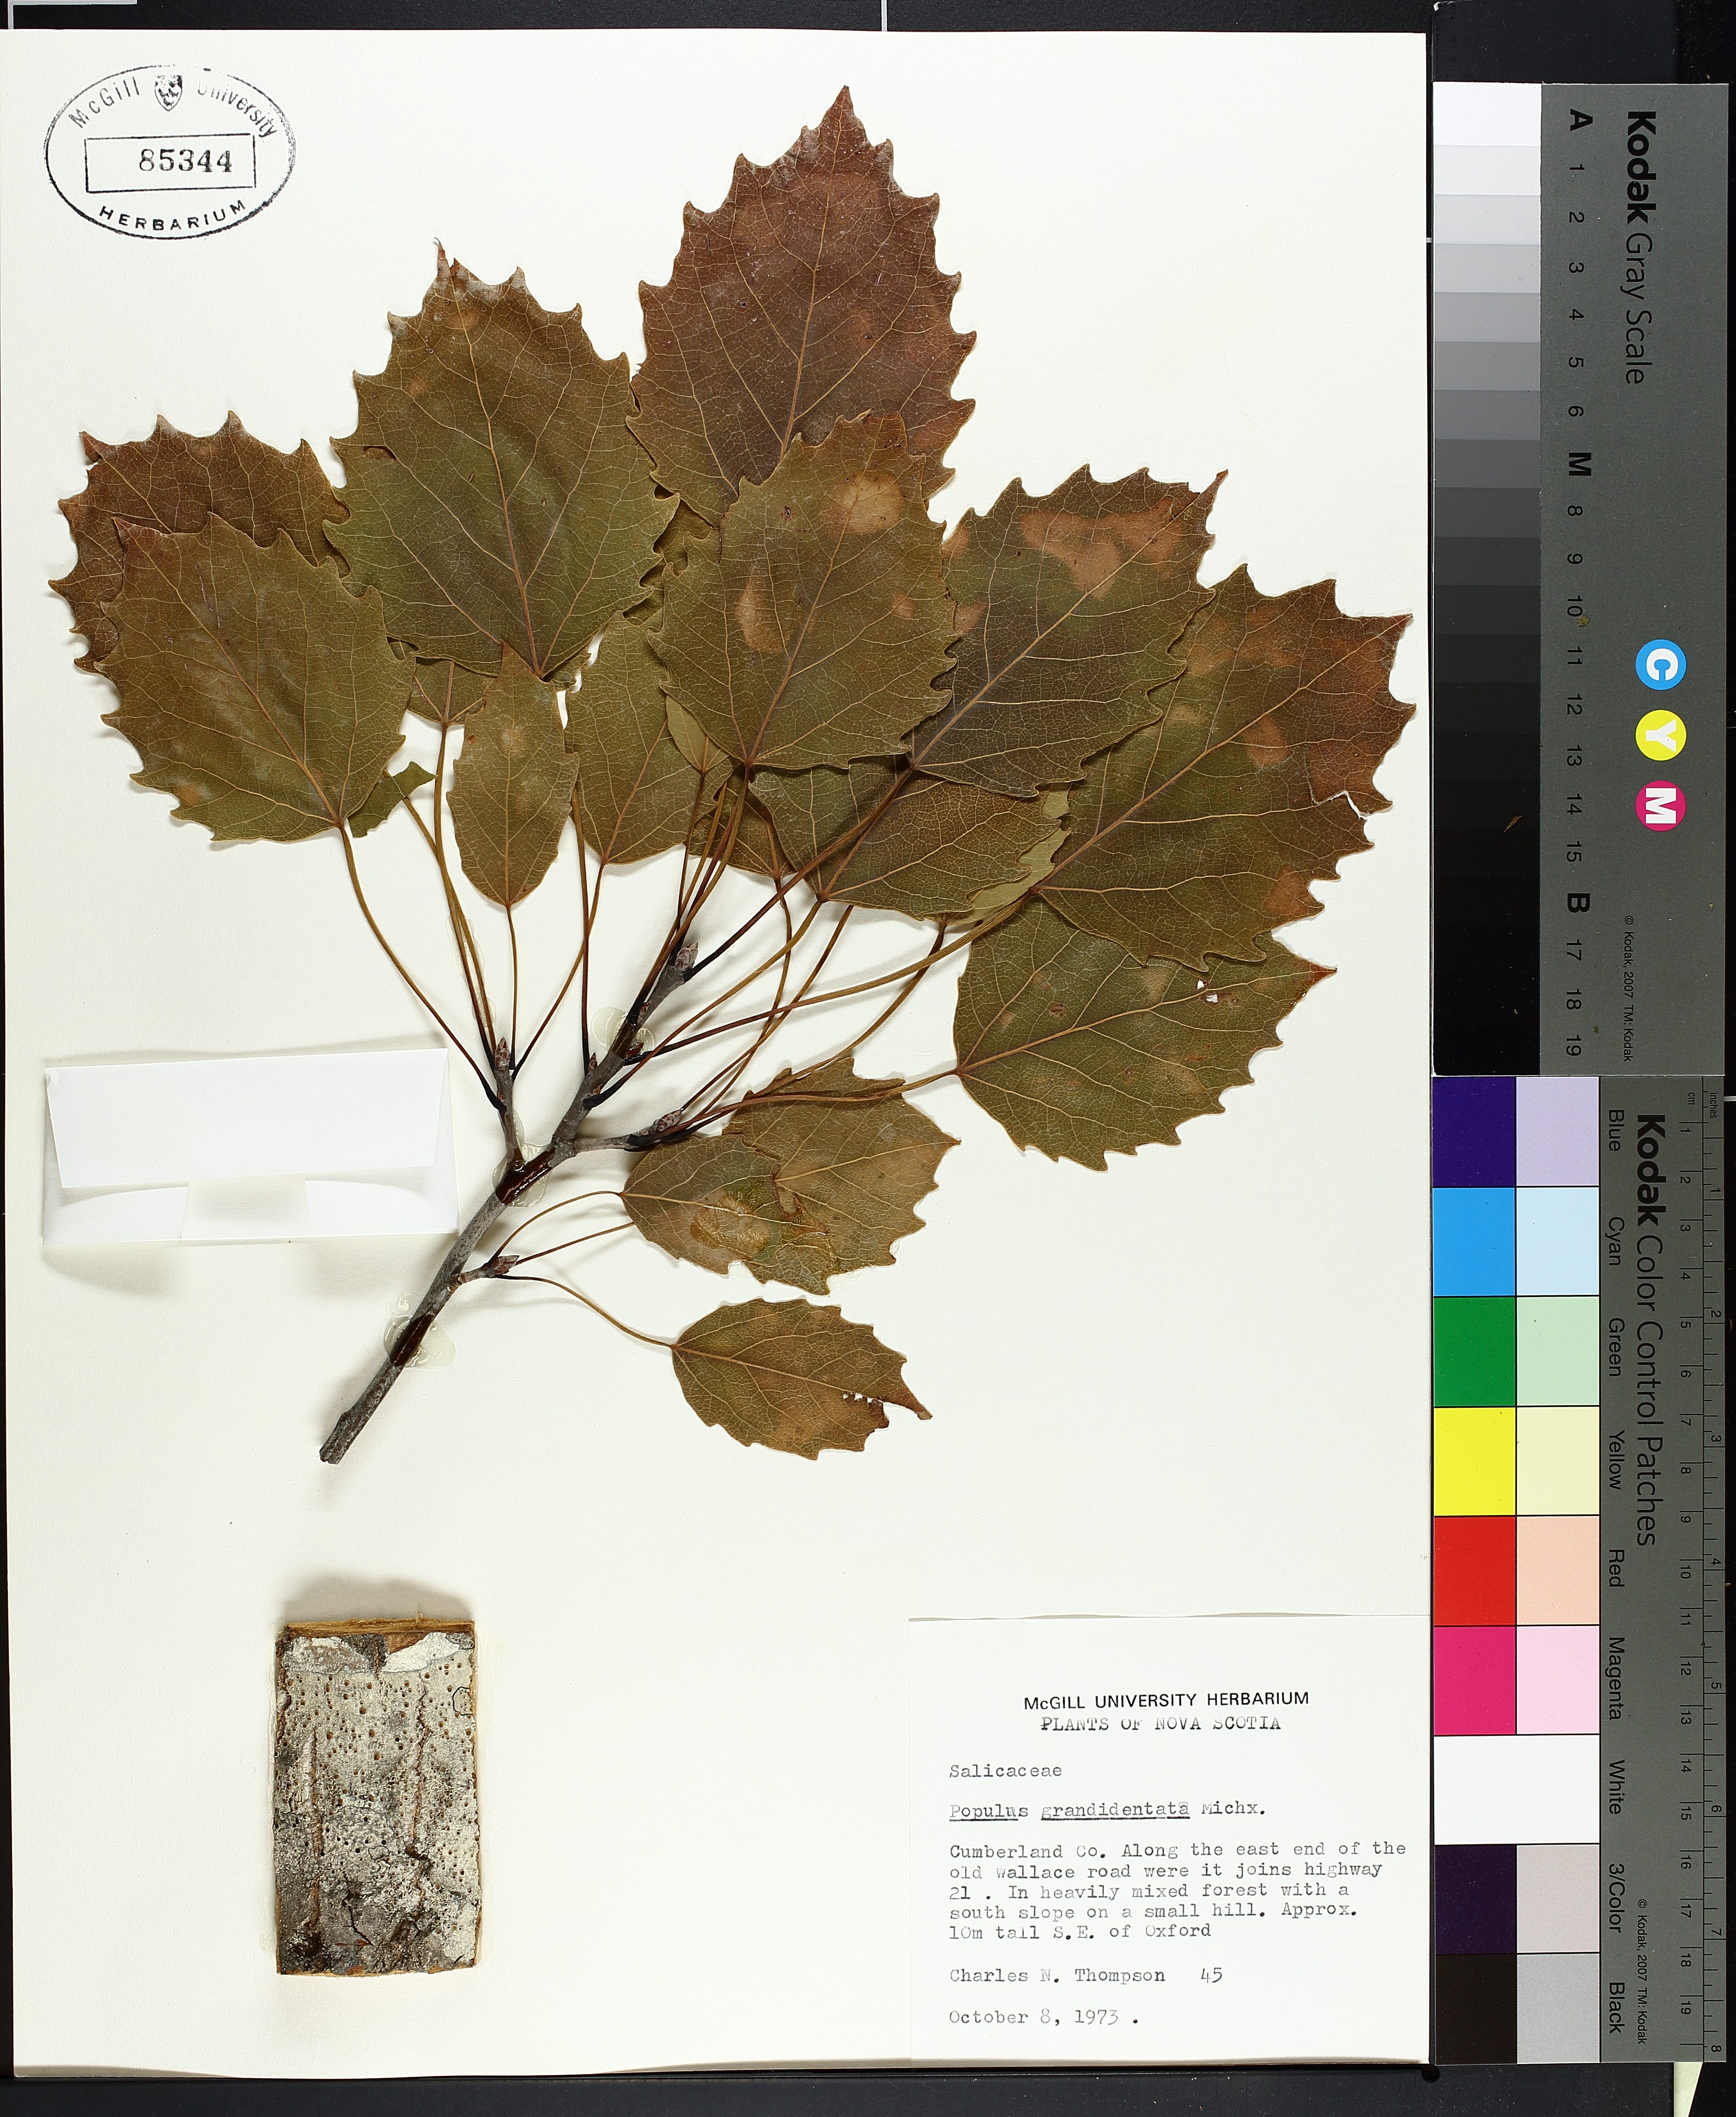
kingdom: Plantae
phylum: Tracheophyta
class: Magnoliopsida
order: Malpighiales
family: Salicaceae
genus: Populus
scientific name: Populus grandidentata
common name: Bigtooth aspen
